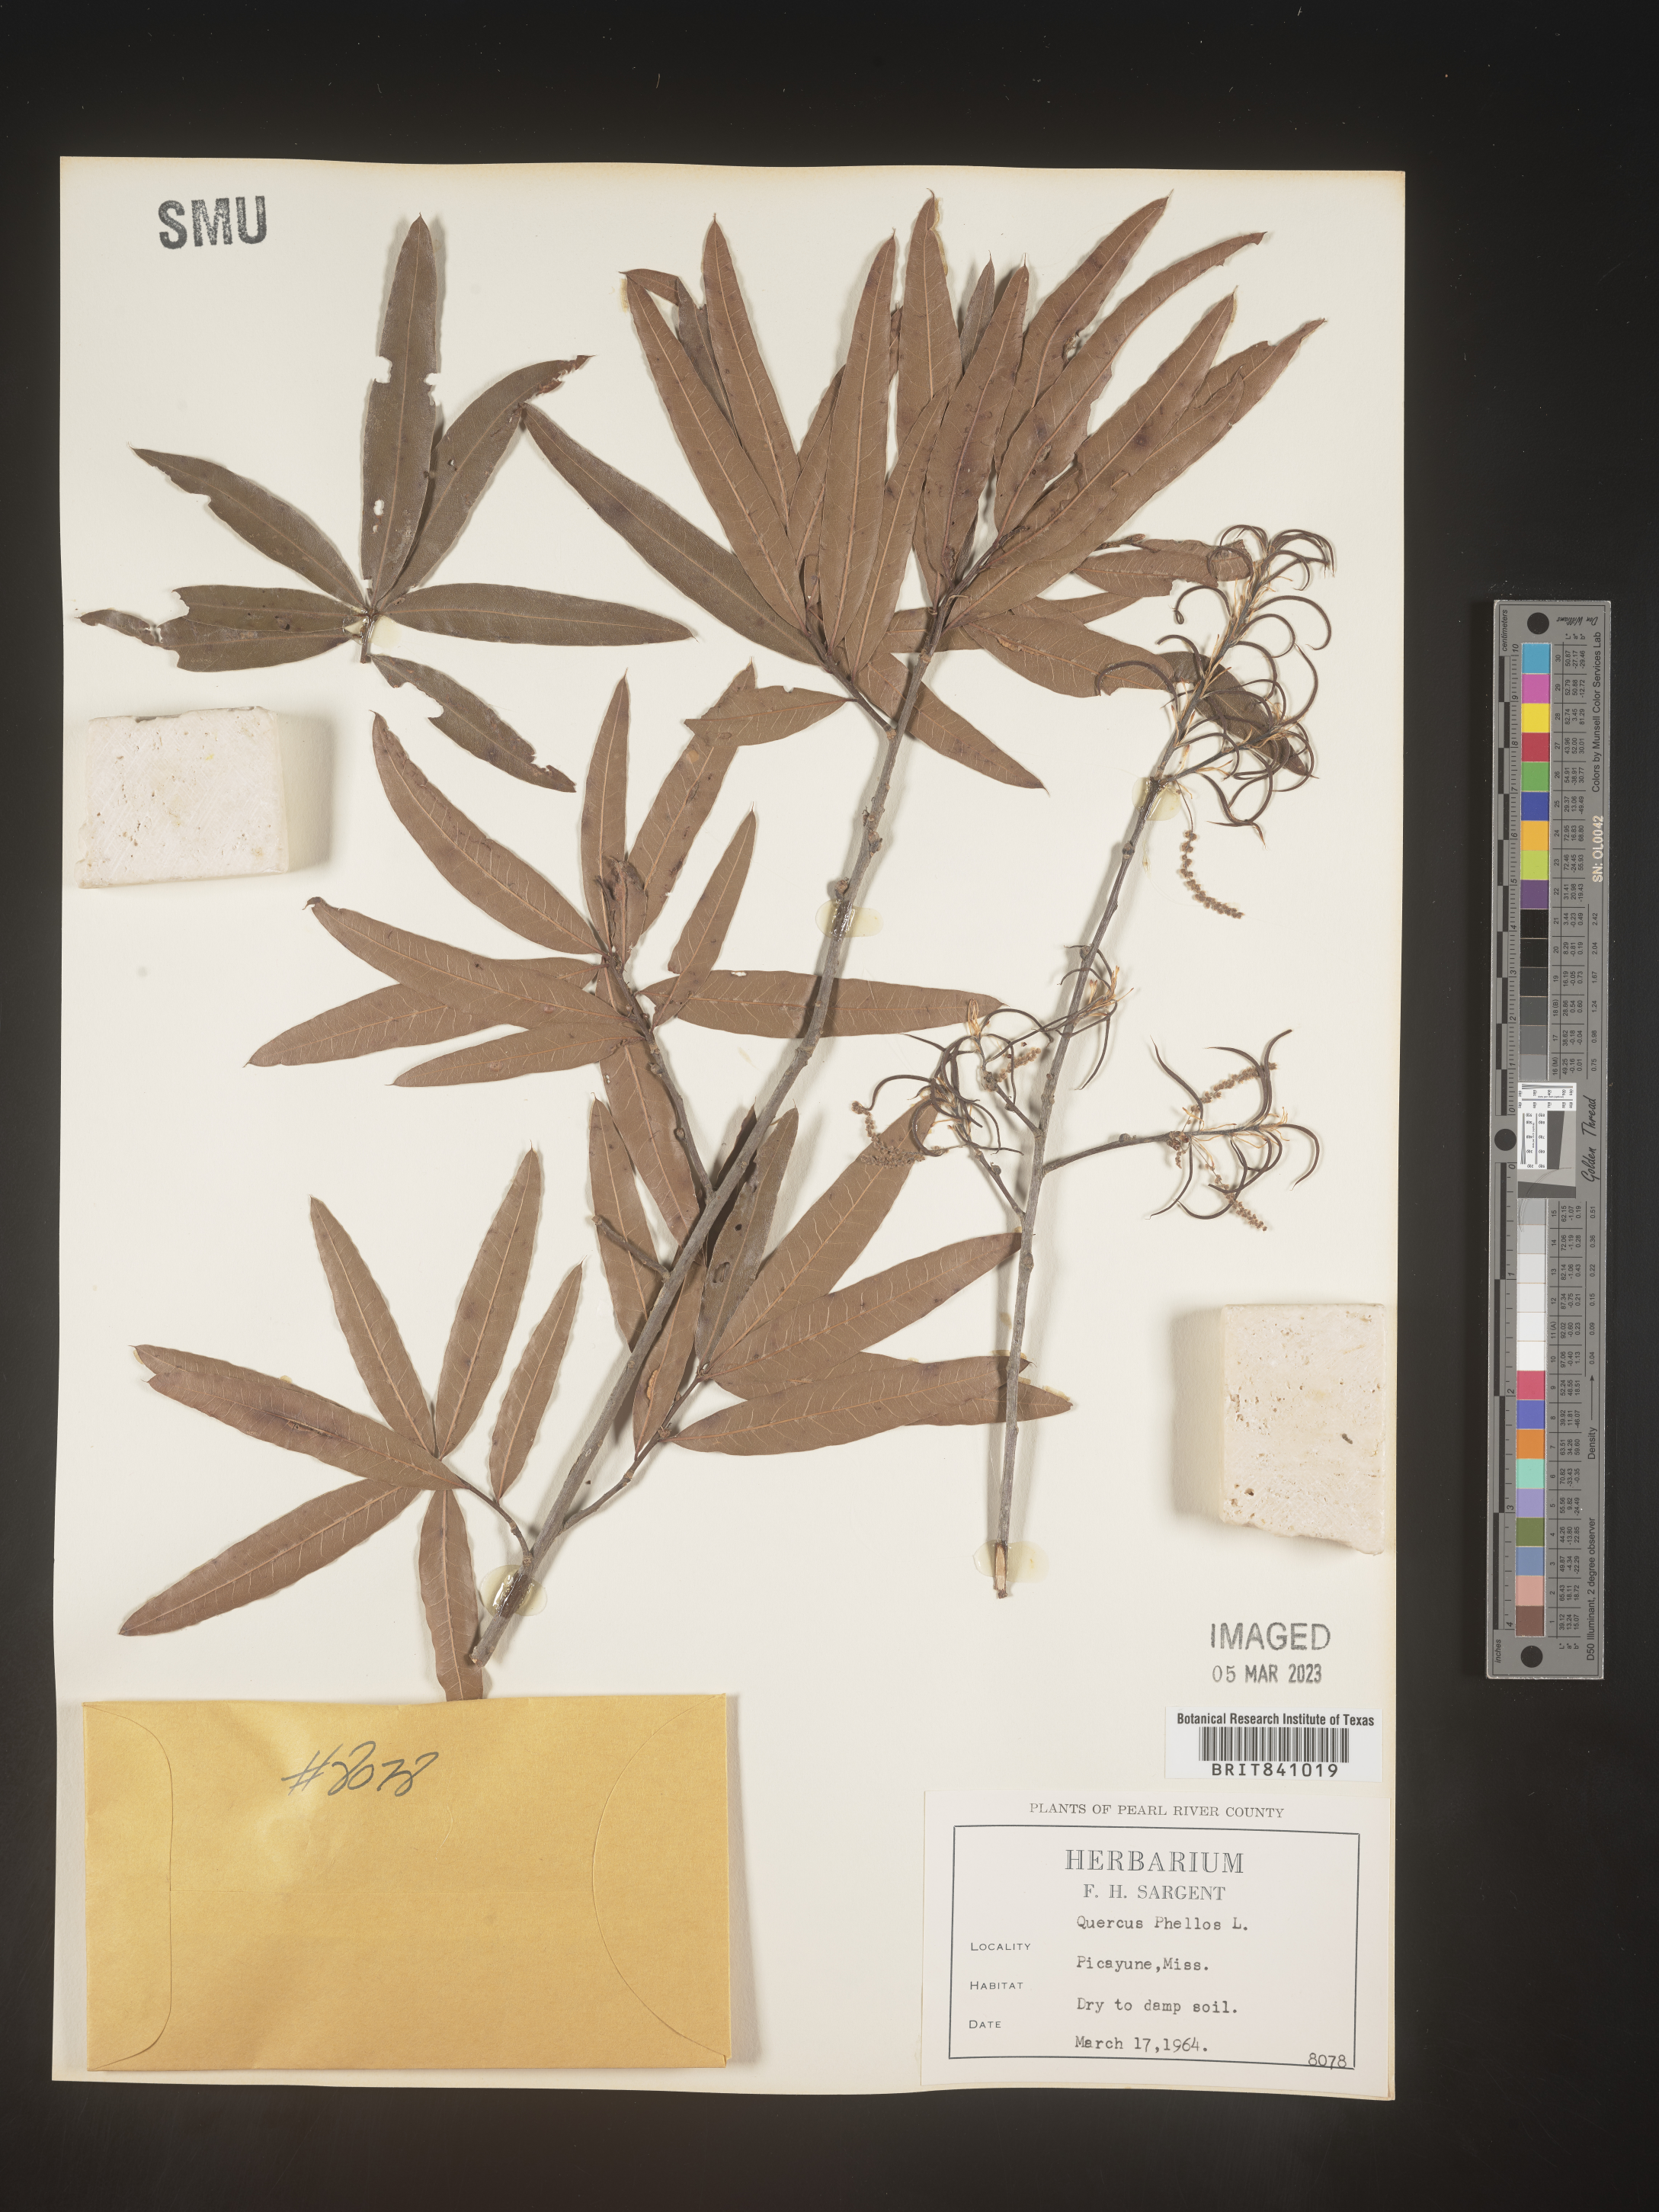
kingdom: Plantae
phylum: Tracheophyta
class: Magnoliopsida
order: Fagales
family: Fagaceae
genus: Quercus
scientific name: Quercus phellos
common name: Willow oak
